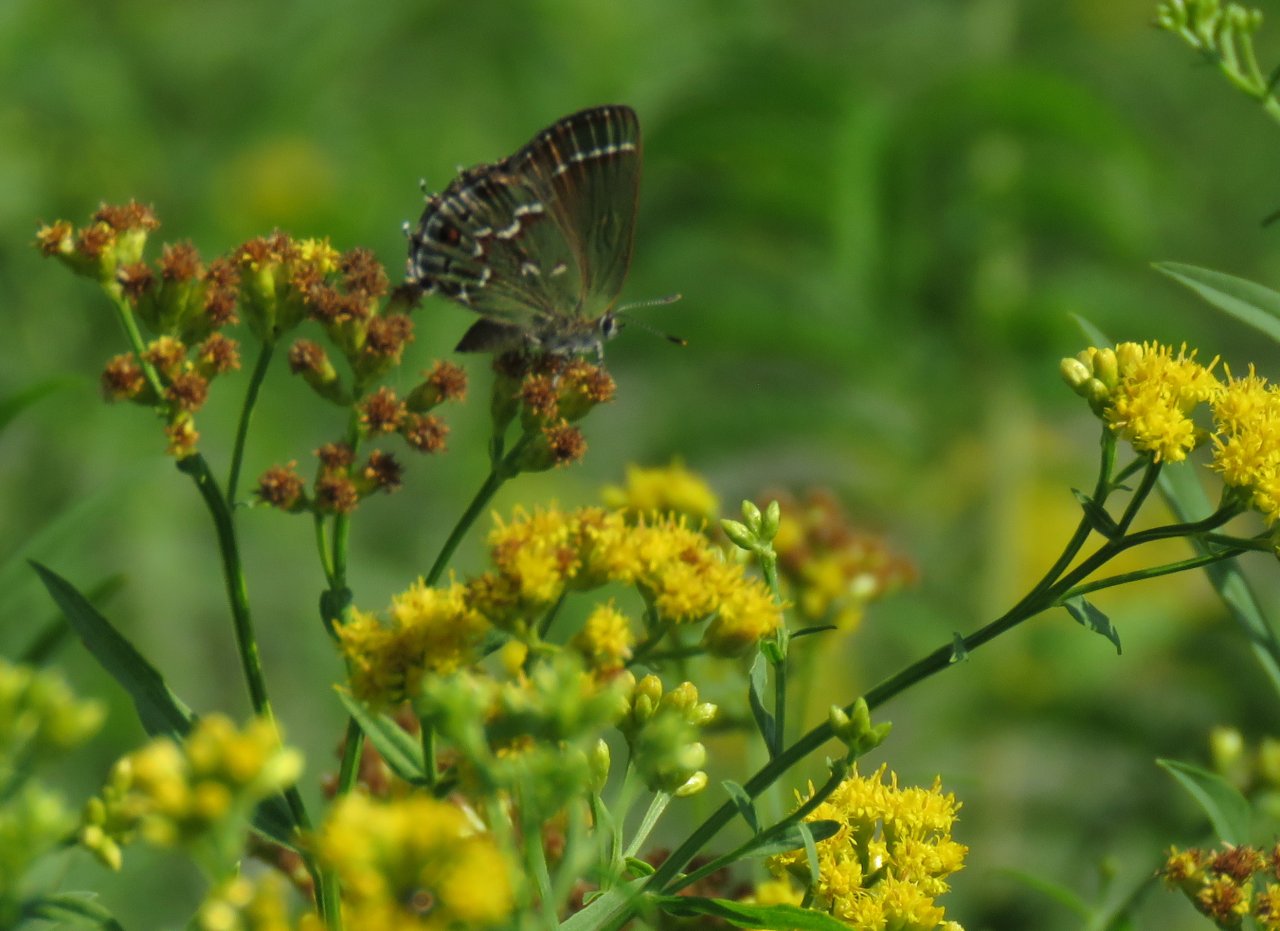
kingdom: Animalia
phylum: Arthropoda
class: Insecta
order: Lepidoptera
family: Lycaenidae
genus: Mitoura
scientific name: Mitoura gryneus
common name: Juniper Hairstreak
